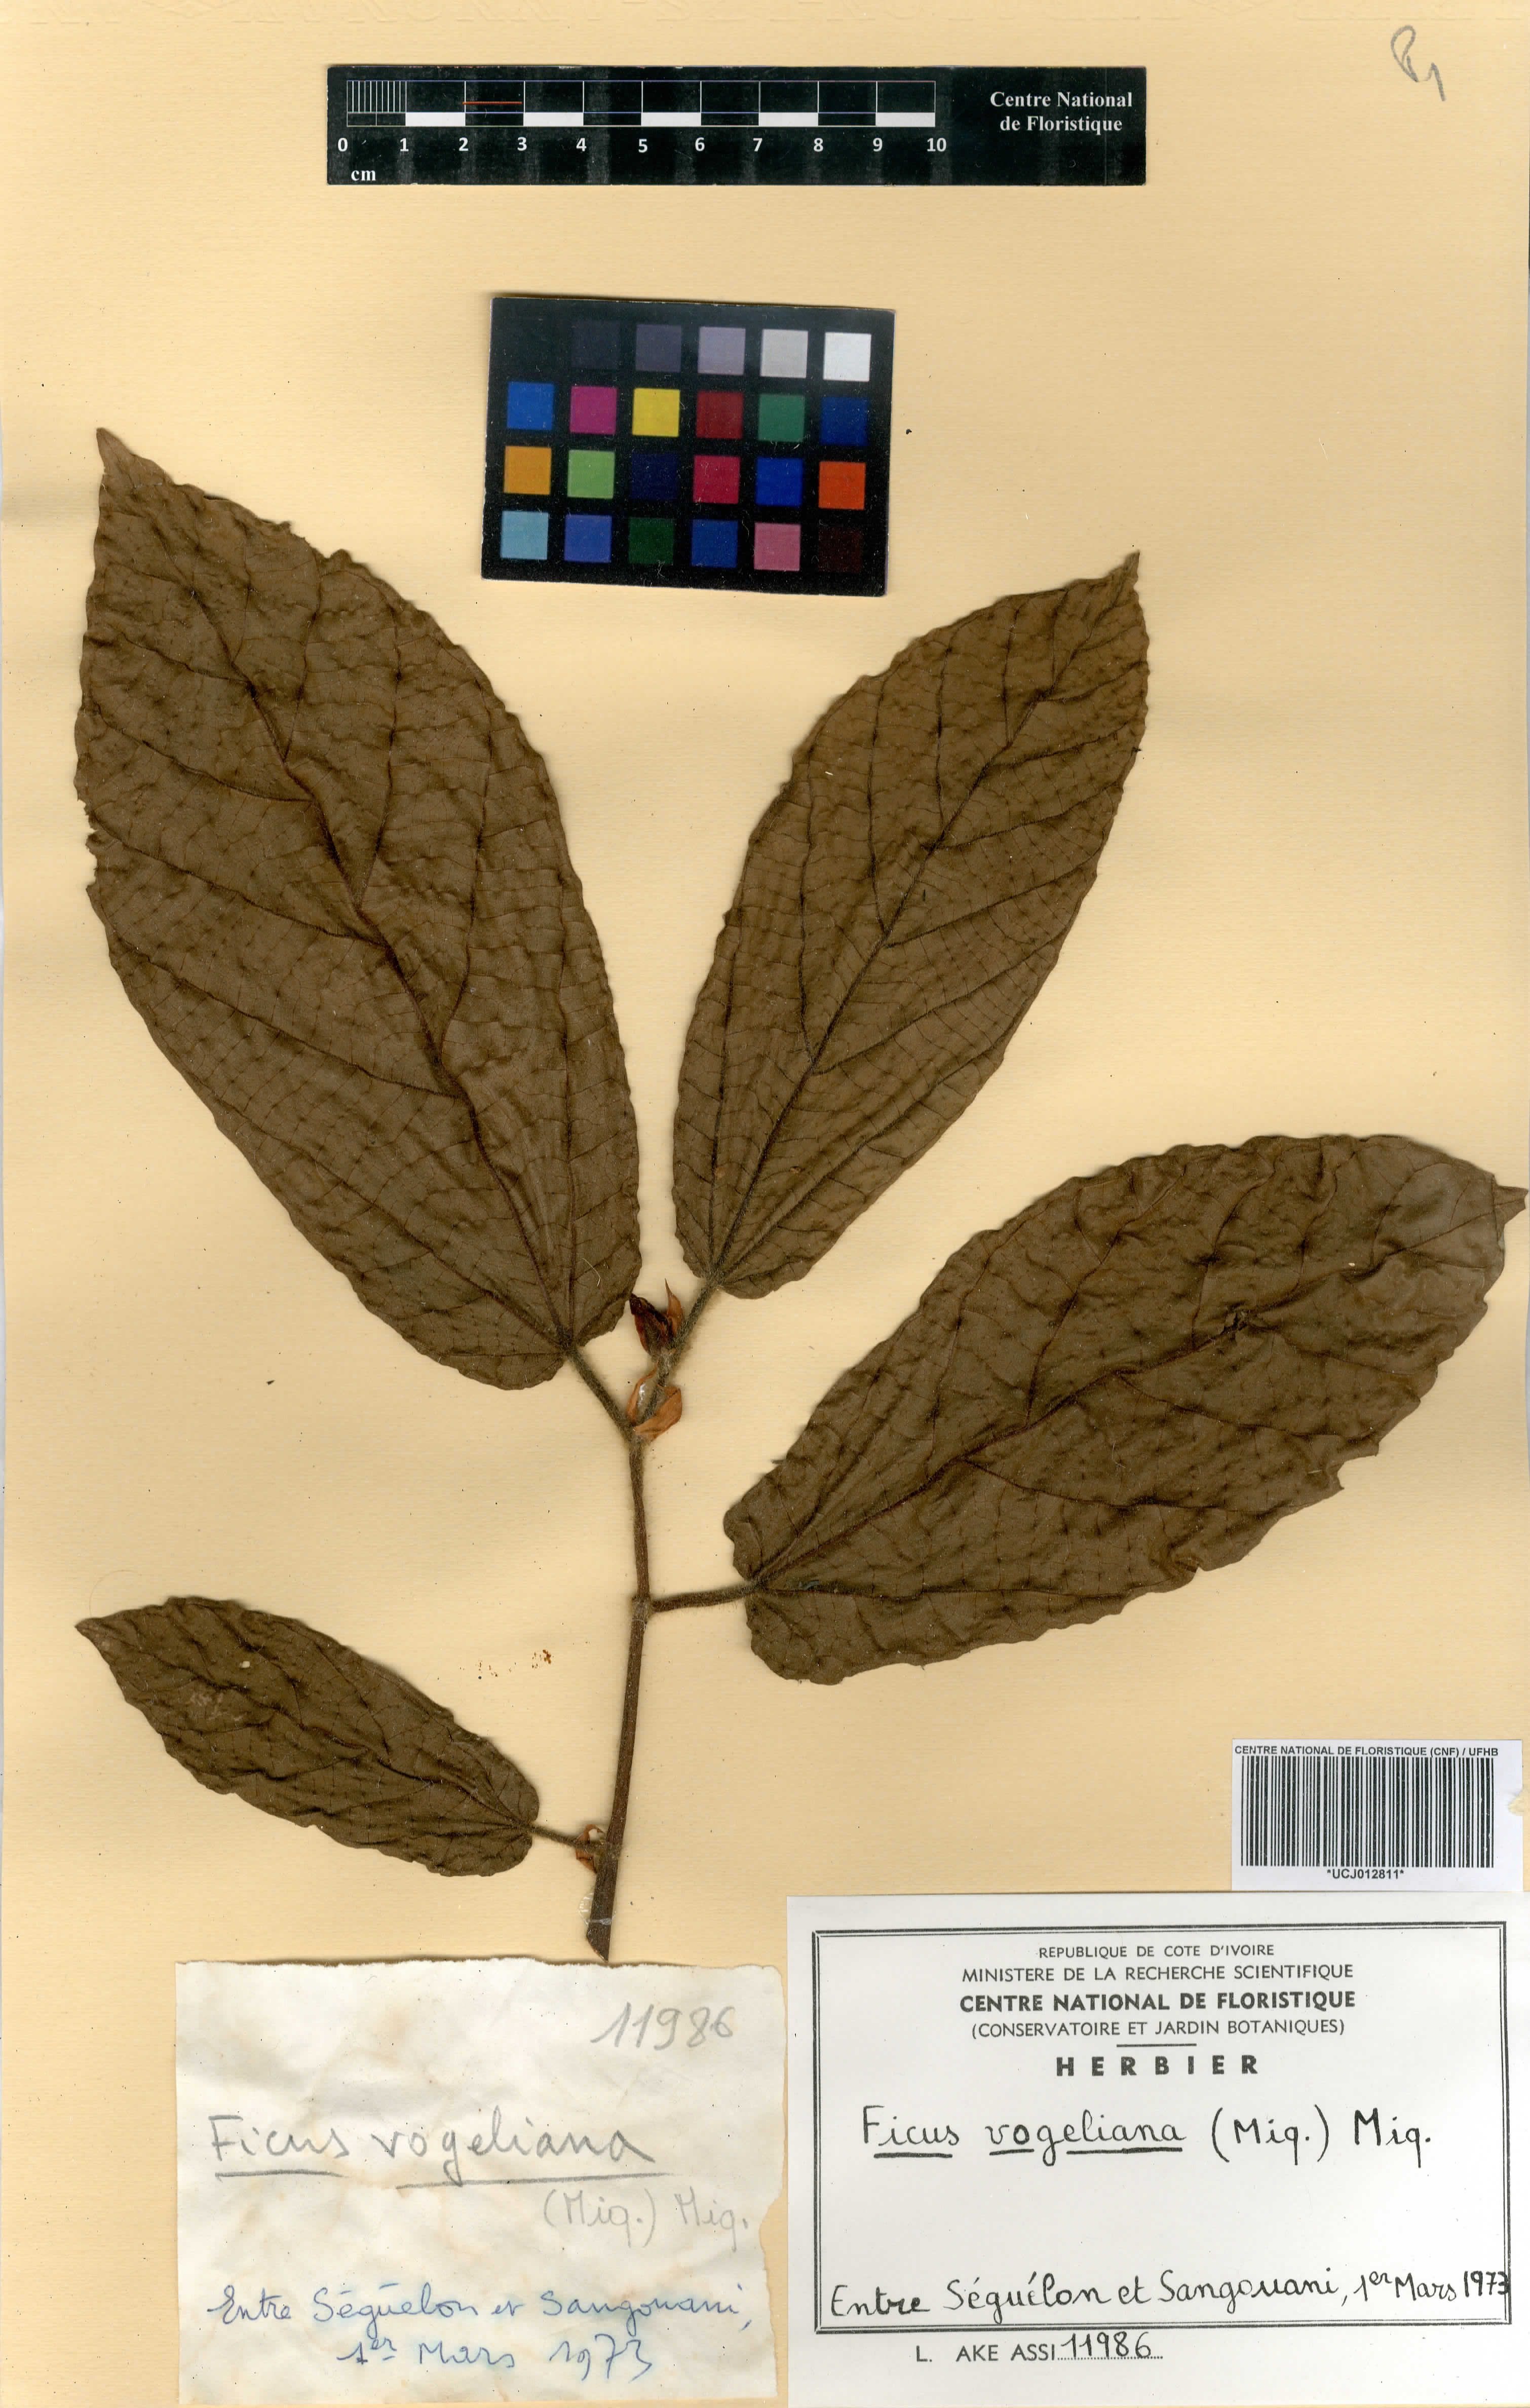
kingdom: Plantae
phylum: Tracheophyta
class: Magnoliopsida
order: Rosales
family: Moraceae
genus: Ficus
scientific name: Ficus vogeliana
